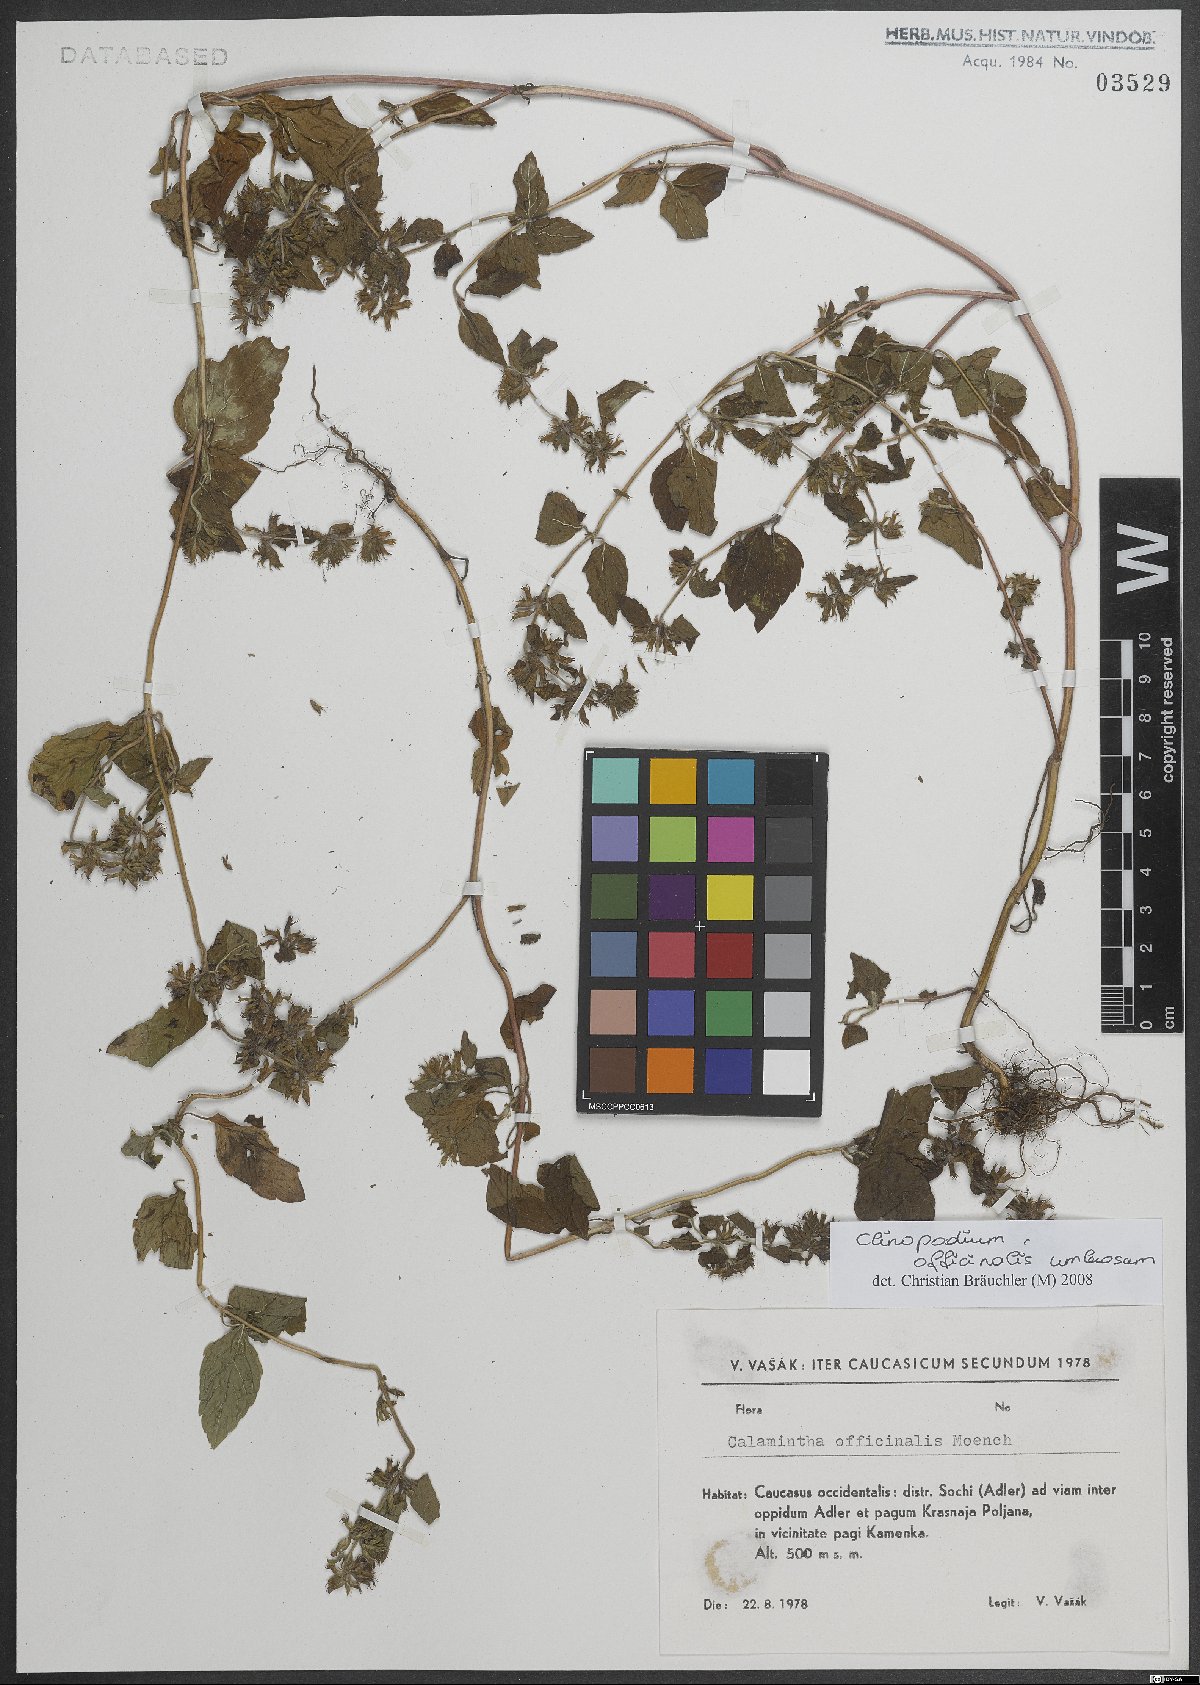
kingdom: Plantae
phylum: Tracheophyta
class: Magnoliopsida
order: Lamiales
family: Lamiaceae
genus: Clinopodium
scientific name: Clinopodium nepeta
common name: Lesser calamint
